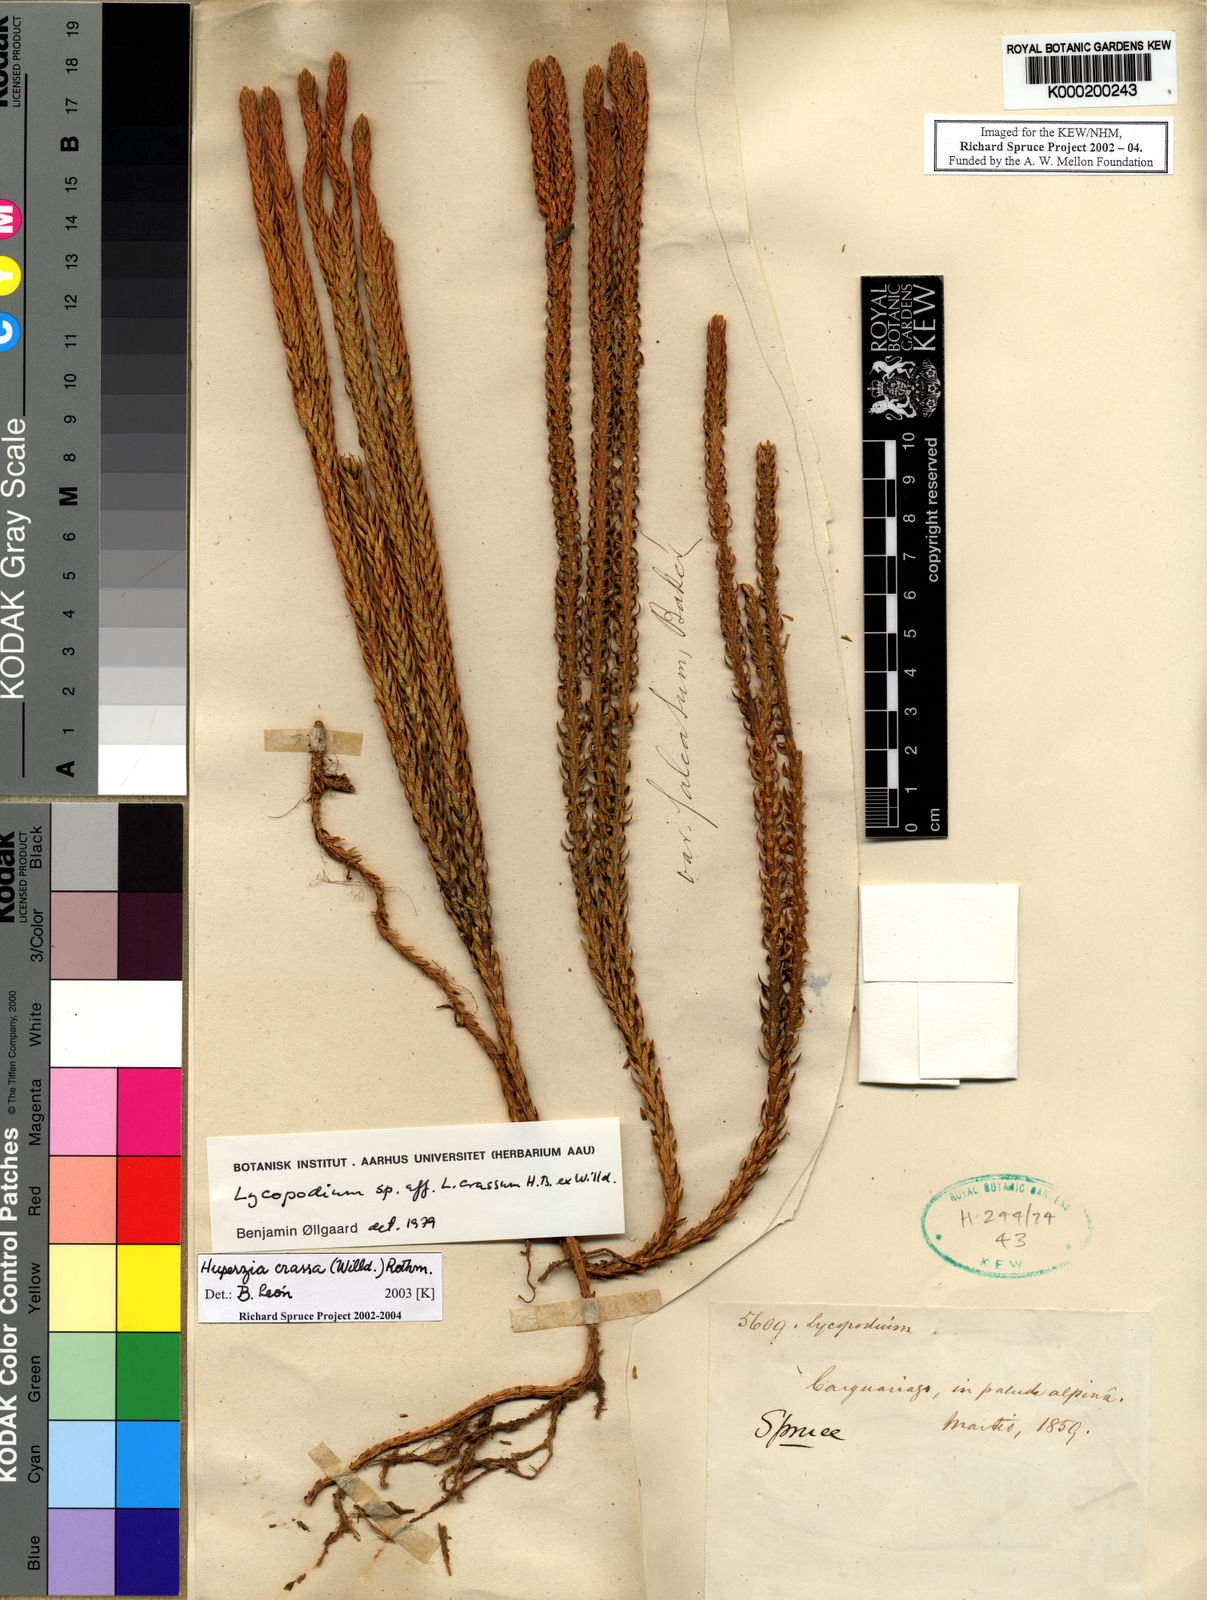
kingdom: Plantae
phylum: Tracheophyta
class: Lycopodiopsida
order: Lycopodiales
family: Lycopodiaceae
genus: Phlegmariurus
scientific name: Phlegmariurus crassus
